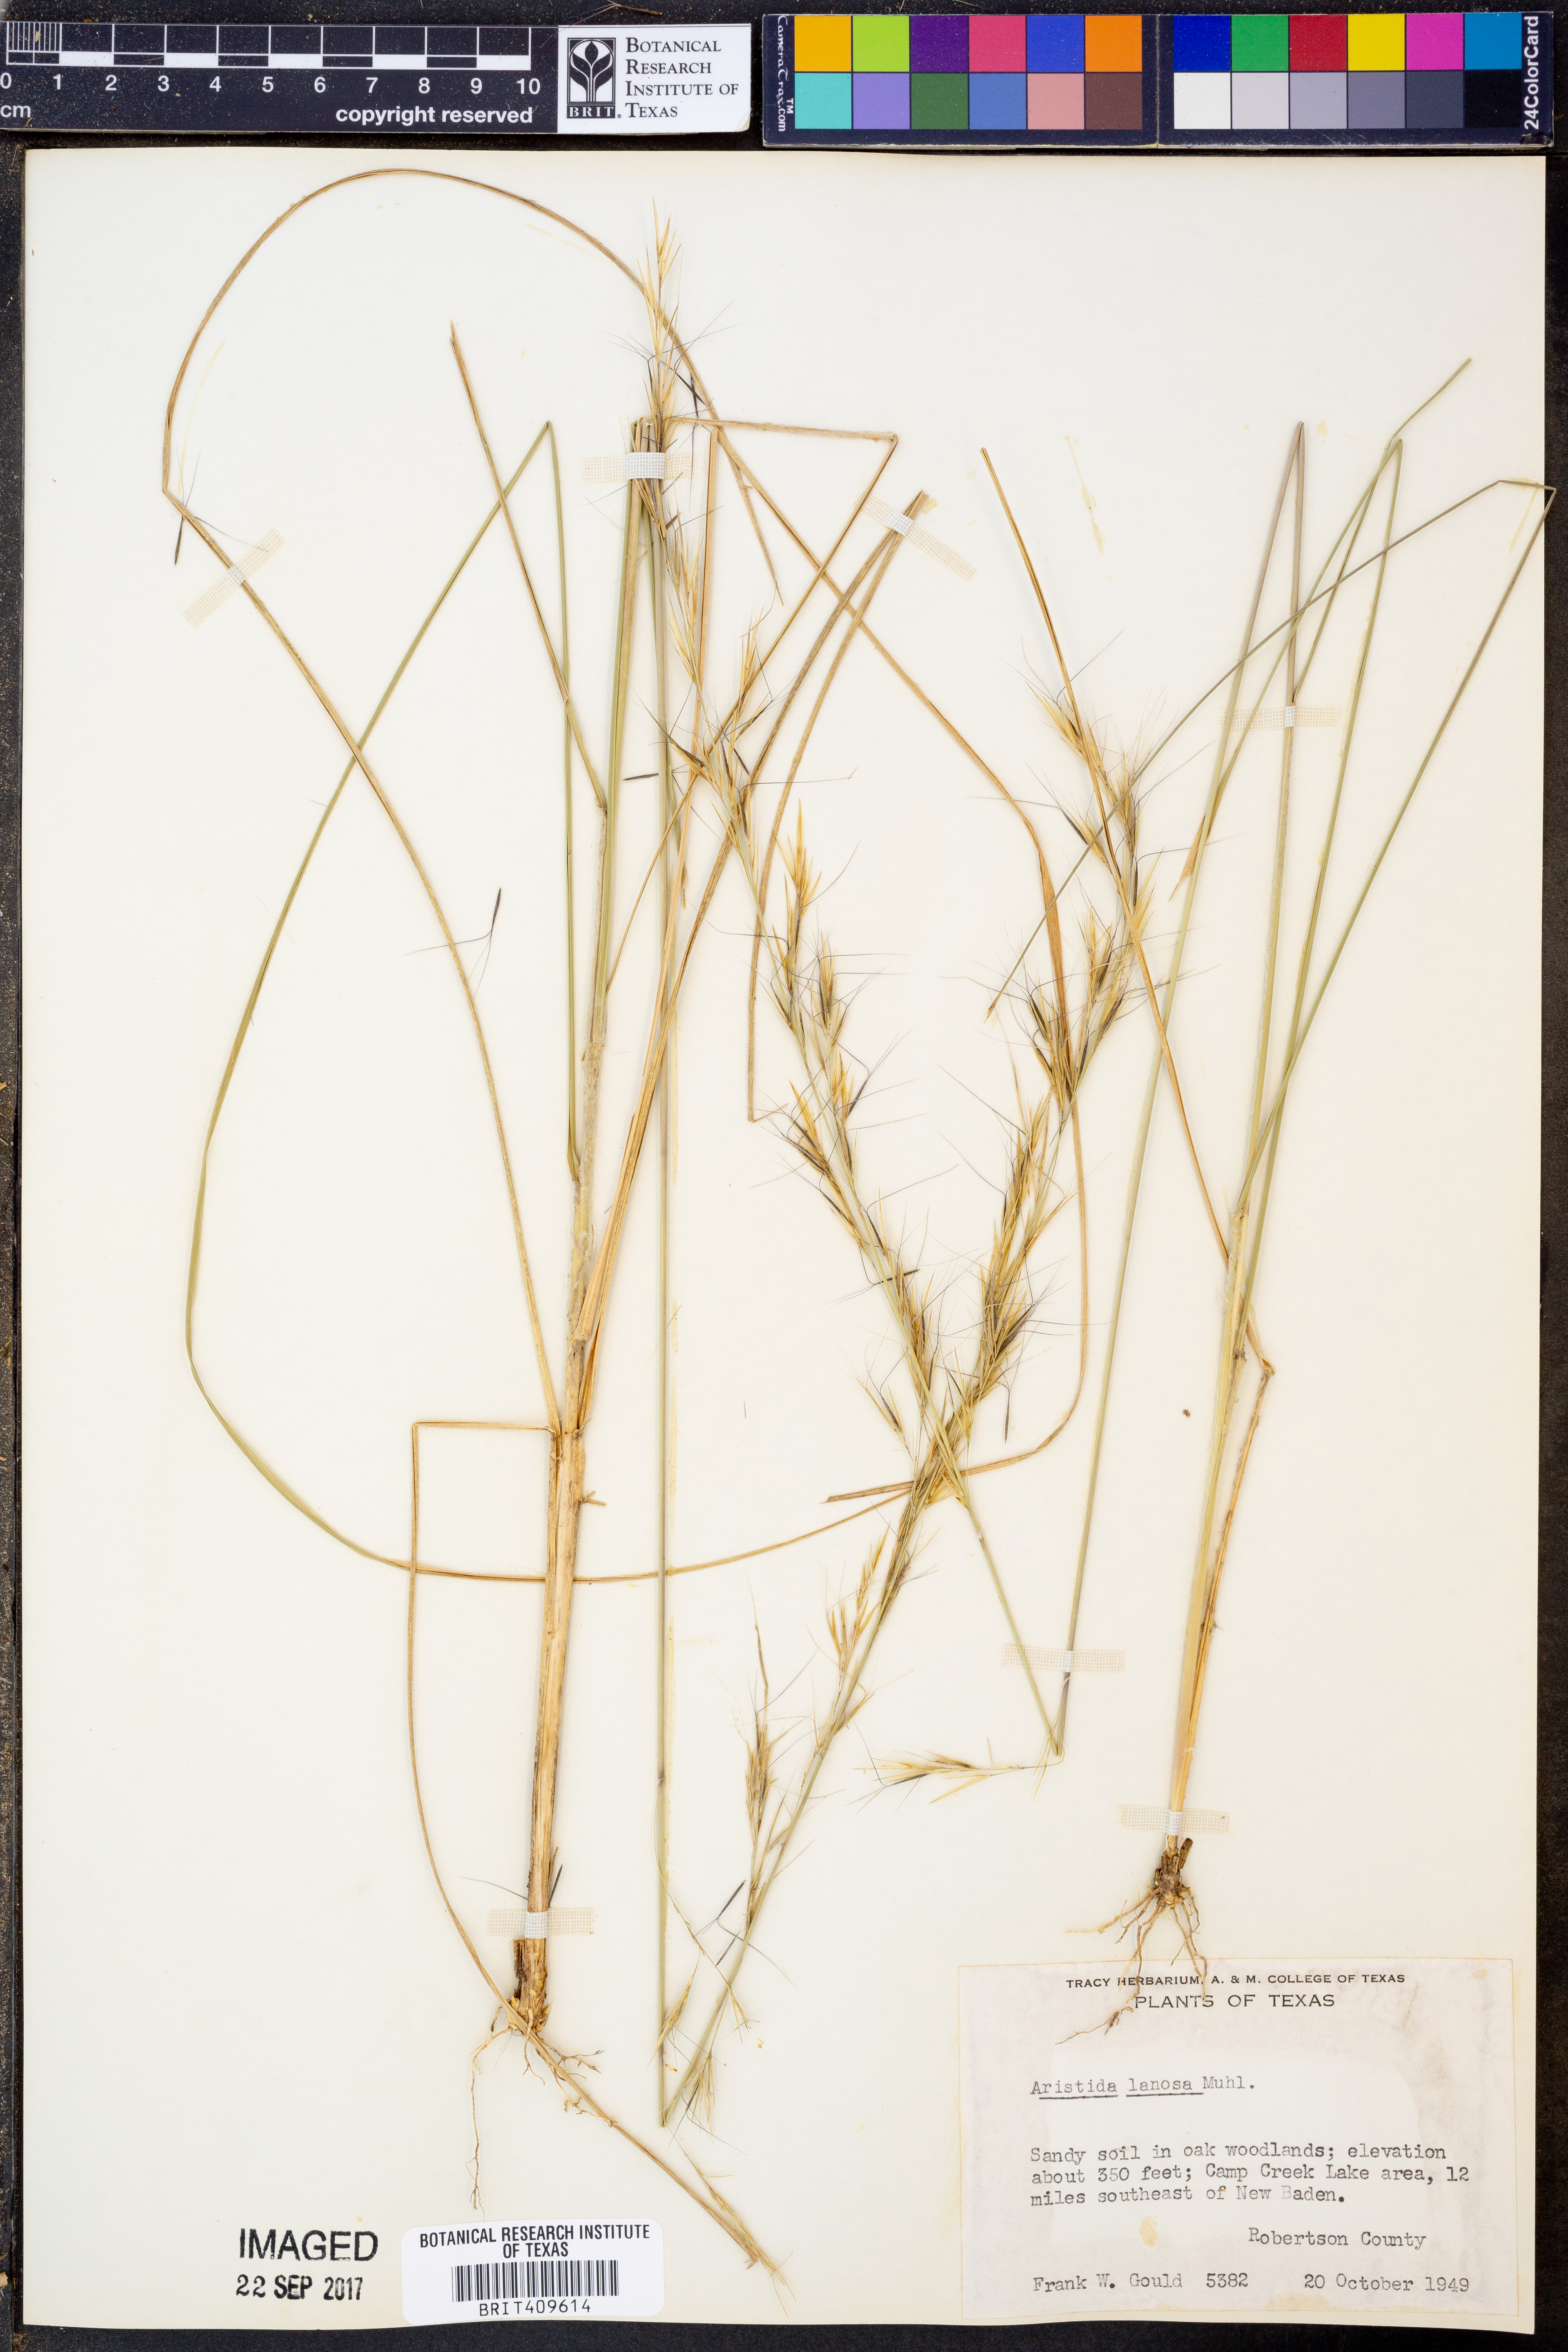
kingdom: Plantae
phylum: Tracheophyta
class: Liliopsida
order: Poales
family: Poaceae
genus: Aristida
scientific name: Aristida lanosa
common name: Woolly three-awn
